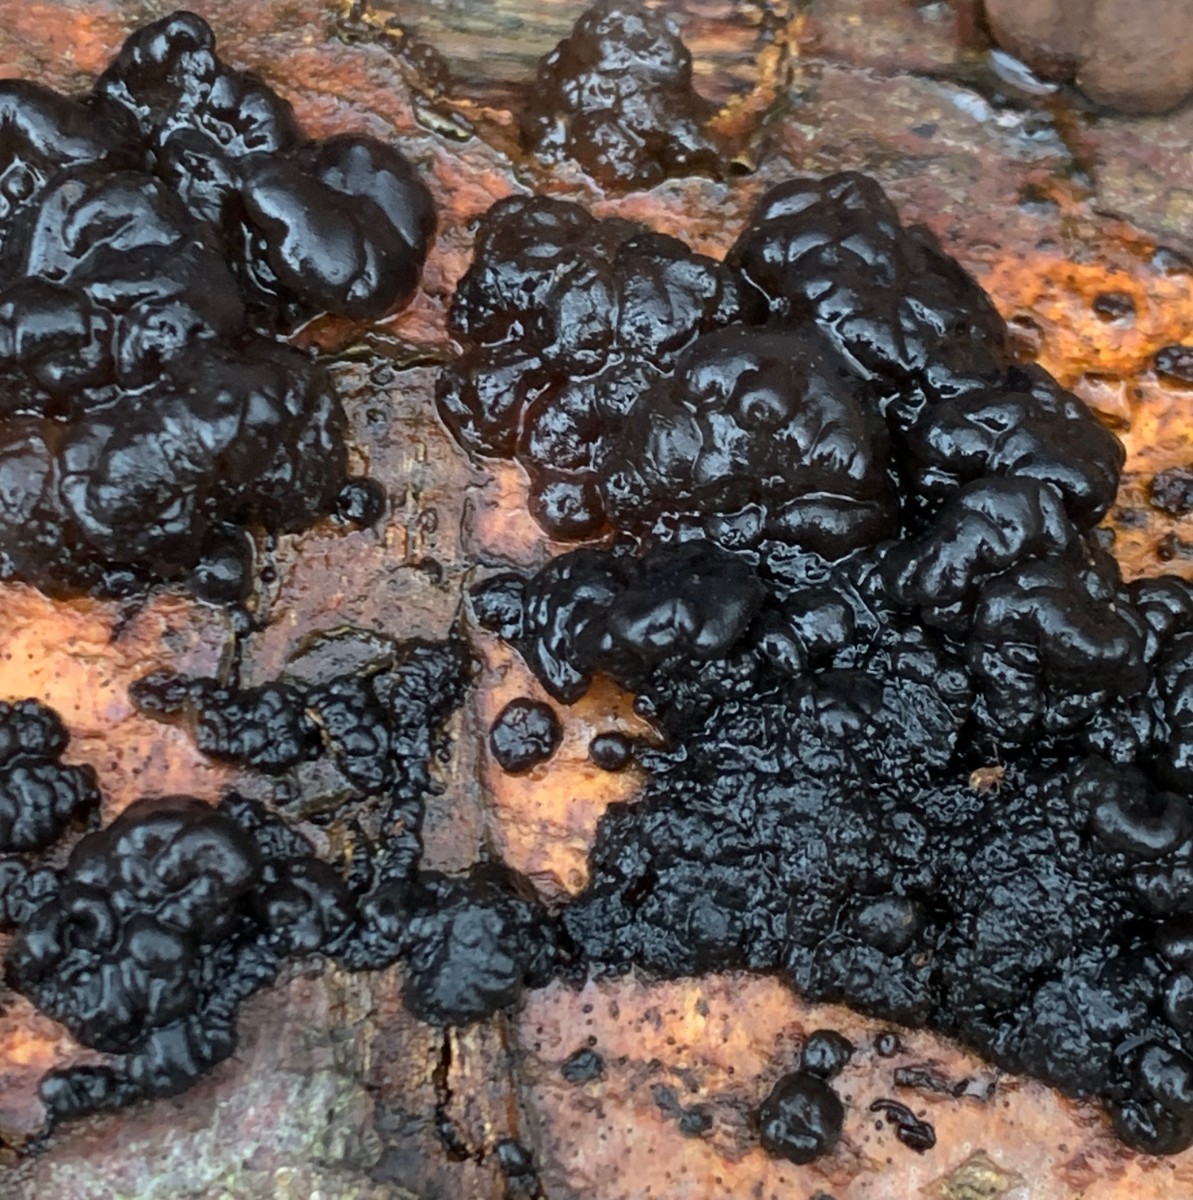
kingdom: Fungi
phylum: Basidiomycota
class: Agaricomycetes
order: Auriculariales
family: Auriculariaceae
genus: Exidia
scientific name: Exidia nigricans
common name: almindelig bævretop
